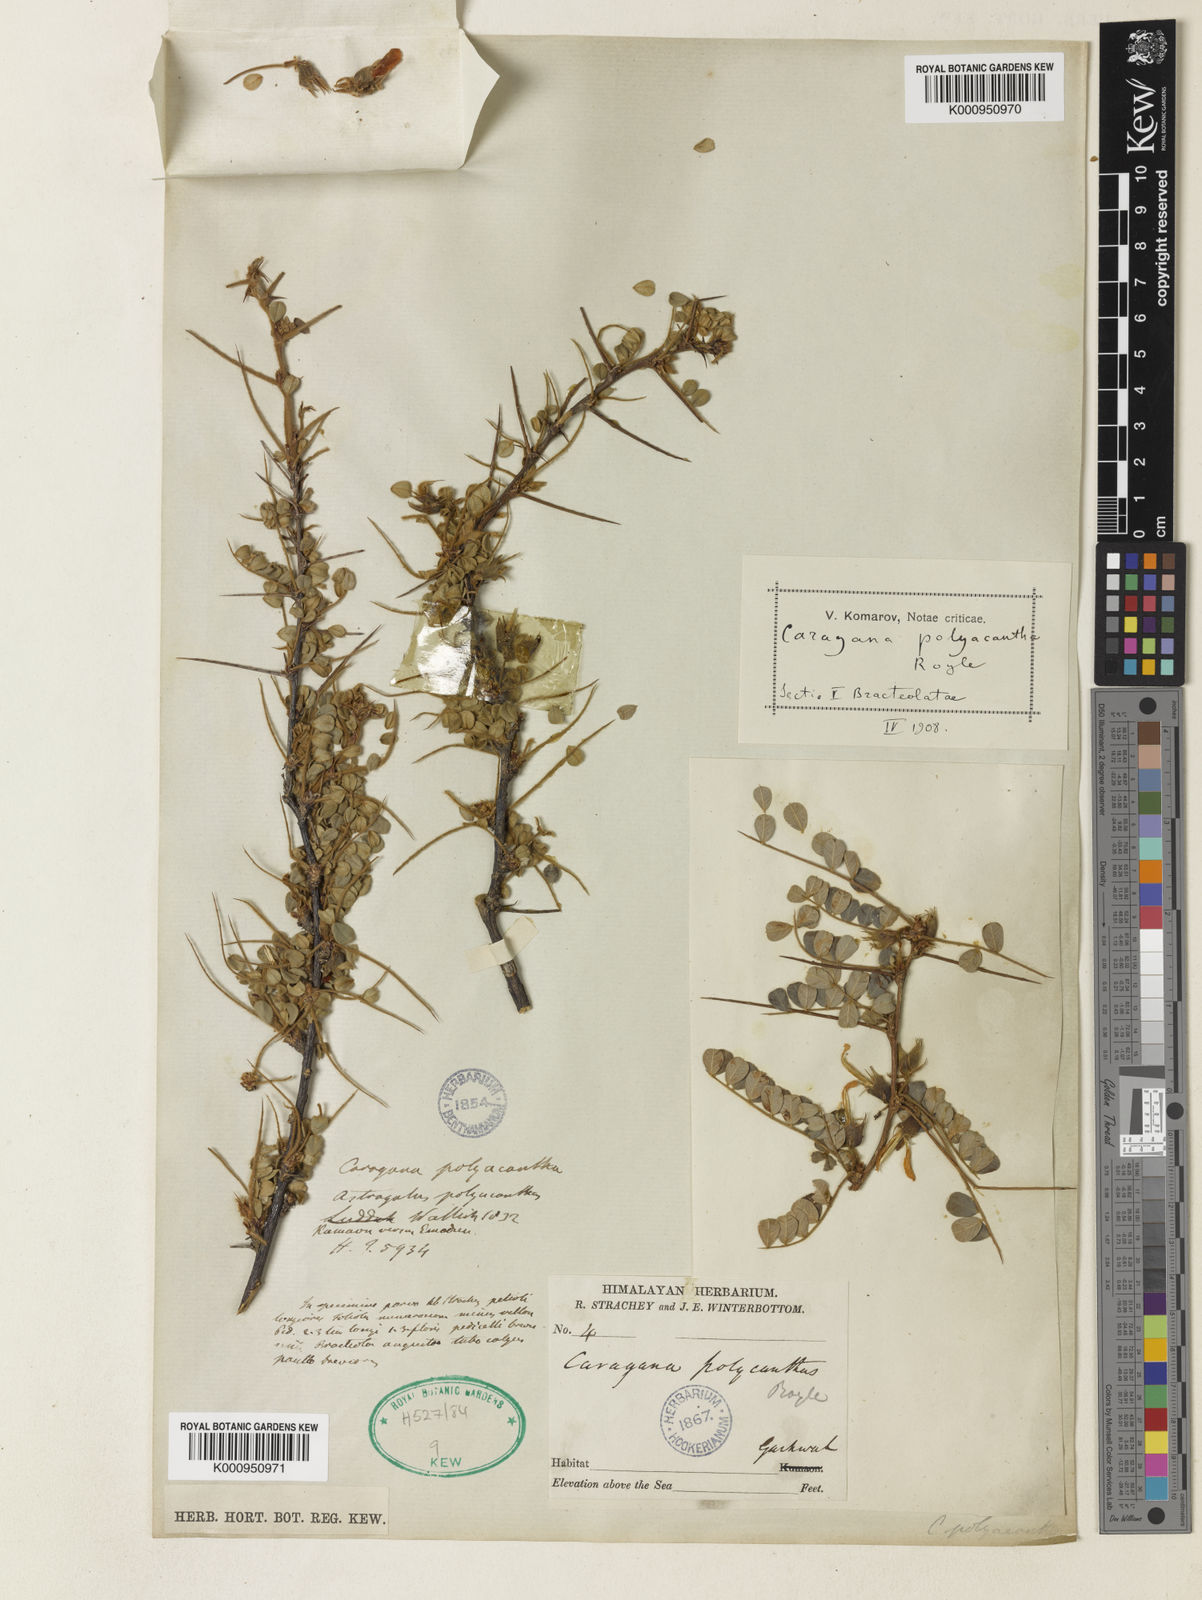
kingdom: Plantae
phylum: Tracheophyta
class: Magnoliopsida
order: Fabales
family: Fabaceae
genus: Caragana
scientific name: Caragana
